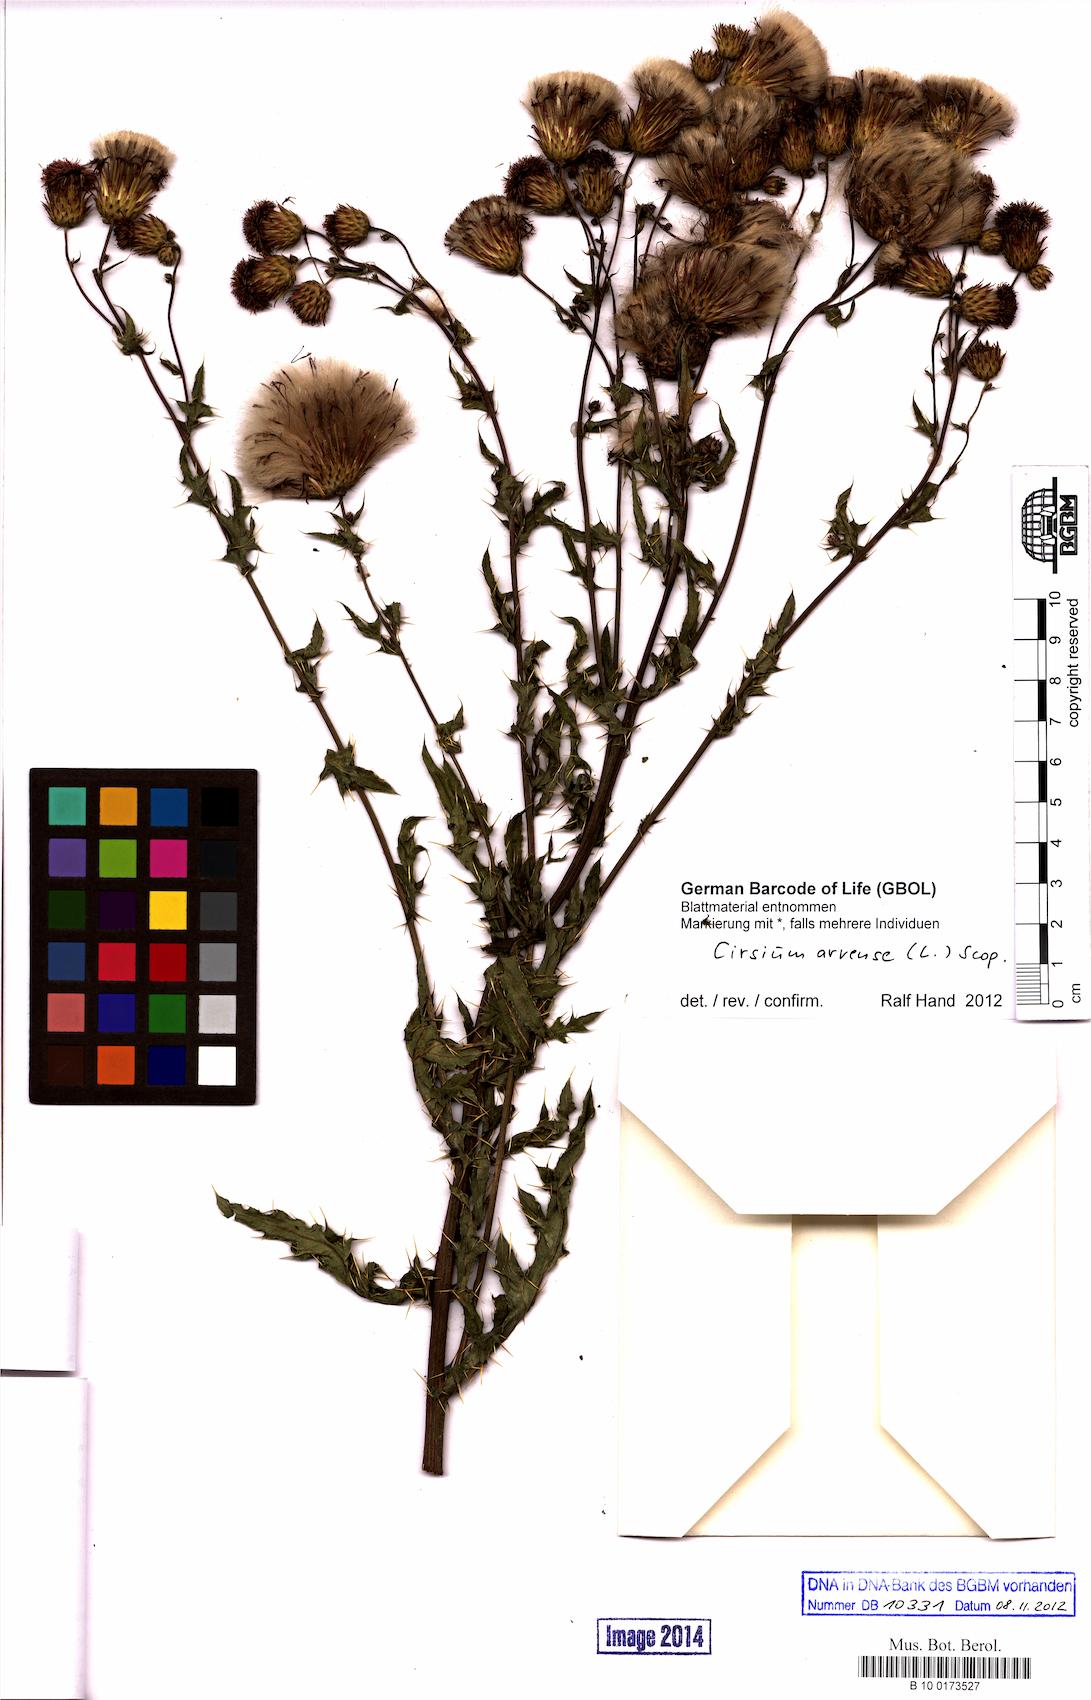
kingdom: Plantae
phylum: Tracheophyta
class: Magnoliopsida
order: Asterales
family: Asteraceae
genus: Cirsium
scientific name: Cirsium arvense
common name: Creeping thistle
